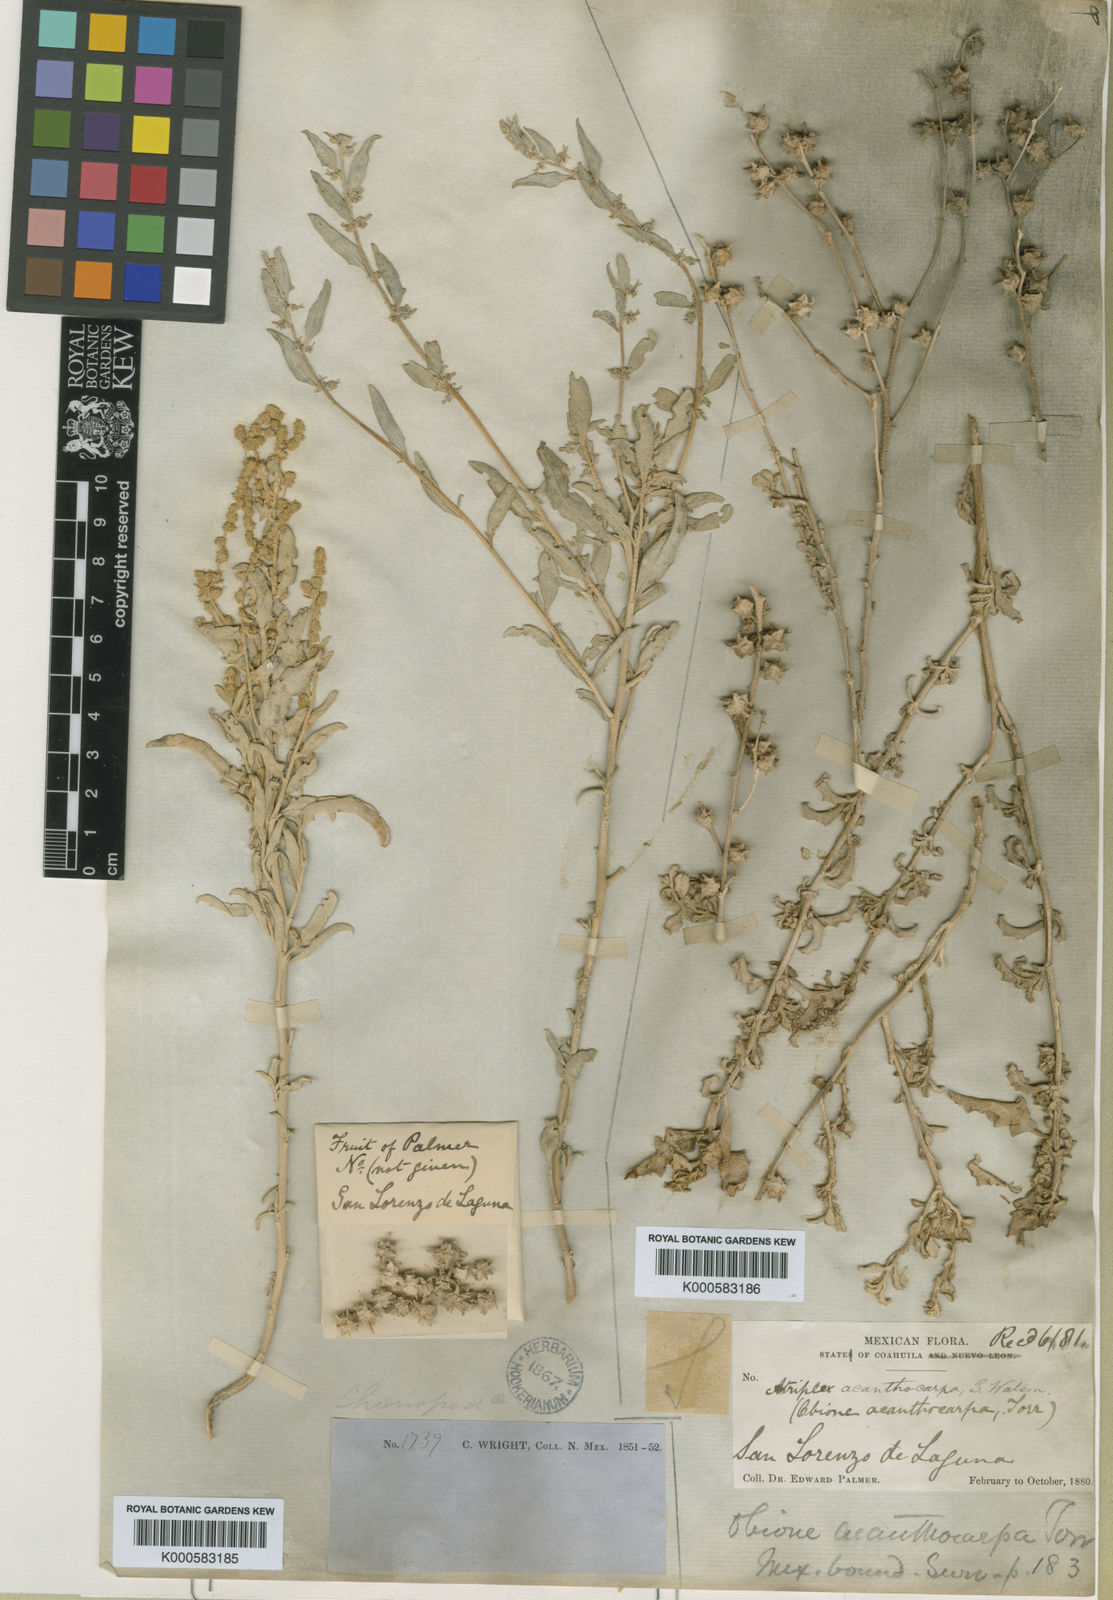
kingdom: Plantae
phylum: Tracheophyta
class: Magnoliopsida
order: Caryophyllales
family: Amaranthaceae
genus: Atriplex
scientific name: Atriplex acanthocarpa
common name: Burscale
